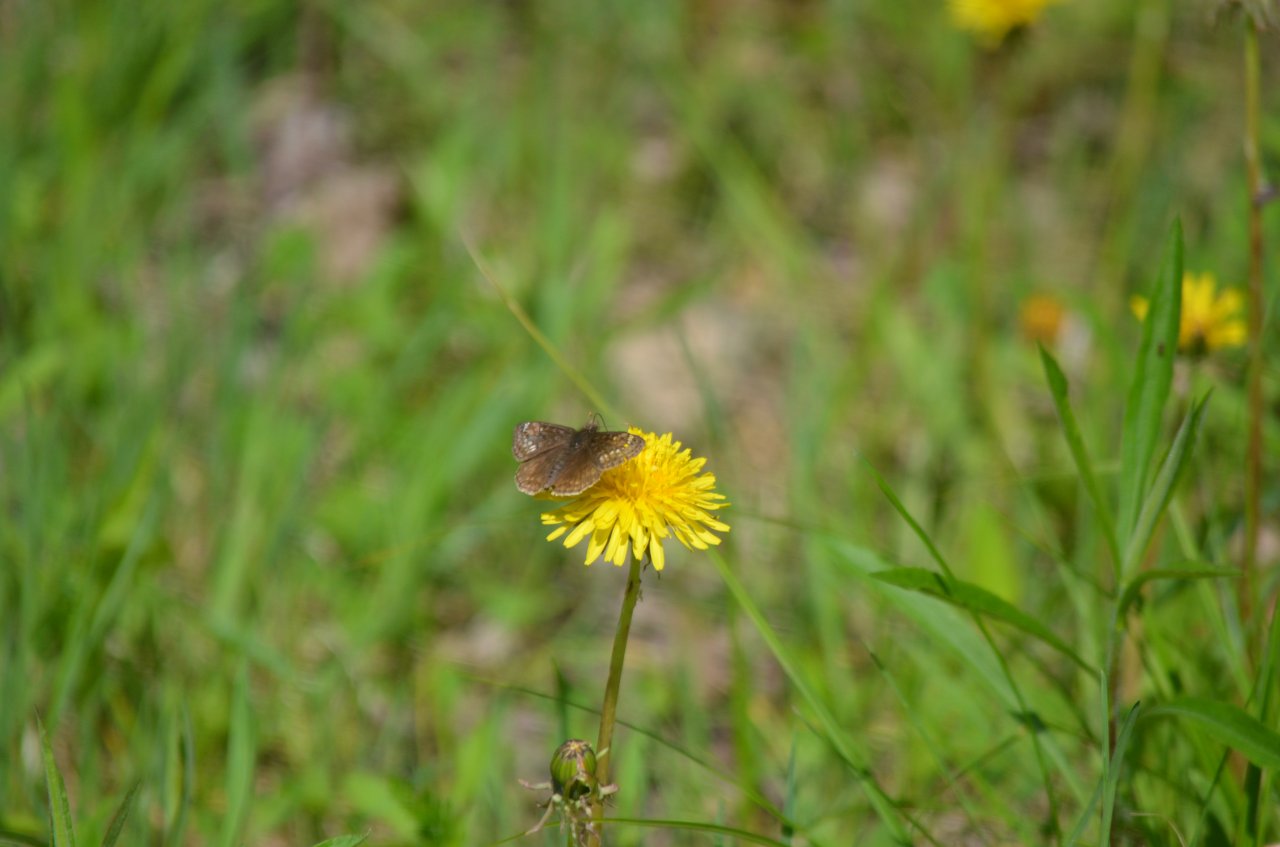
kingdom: Animalia
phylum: Arthropoda
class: Insecta
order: Lepidoptera
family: Hesperiidae
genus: Gesta
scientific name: Gesta
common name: Juvenal's Duskywing
